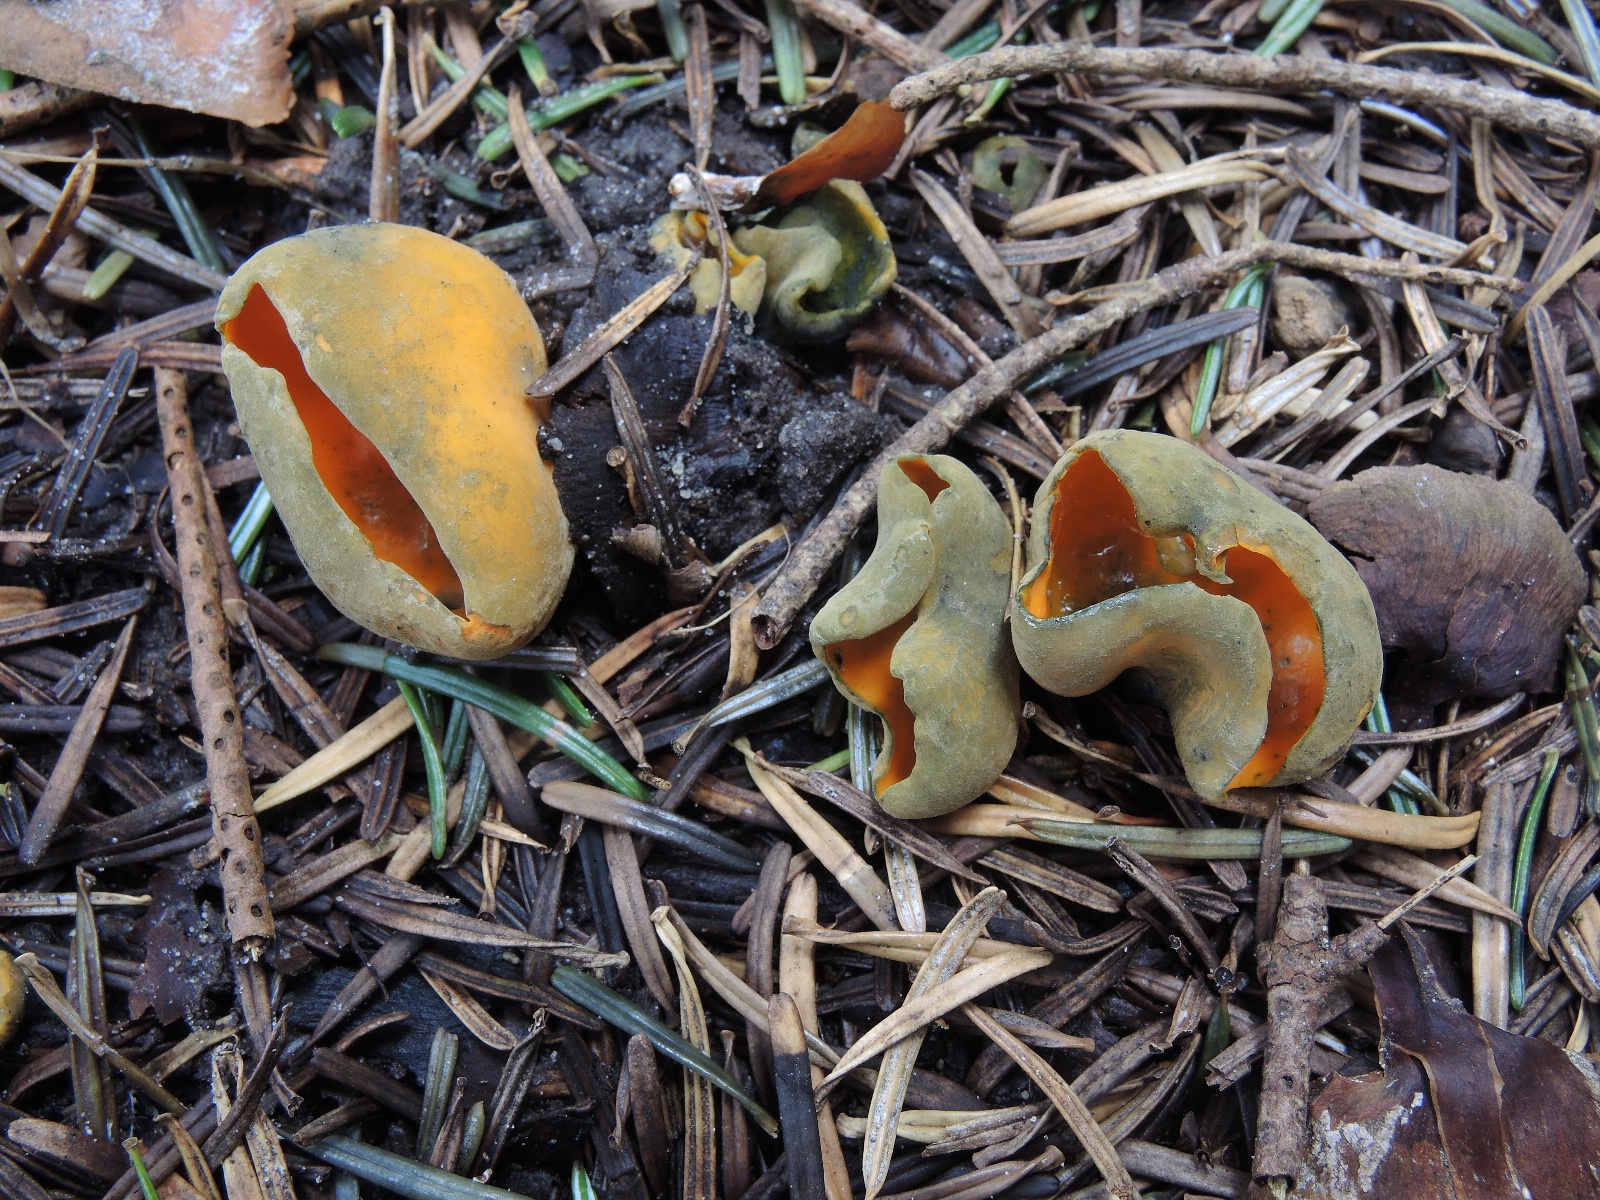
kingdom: Fungi
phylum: Ascomycota
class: Pezizomycetes
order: Pezizales
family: Caloscyphaceae
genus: Caloscypha
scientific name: Caloscypha fulgens
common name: jadebæger
